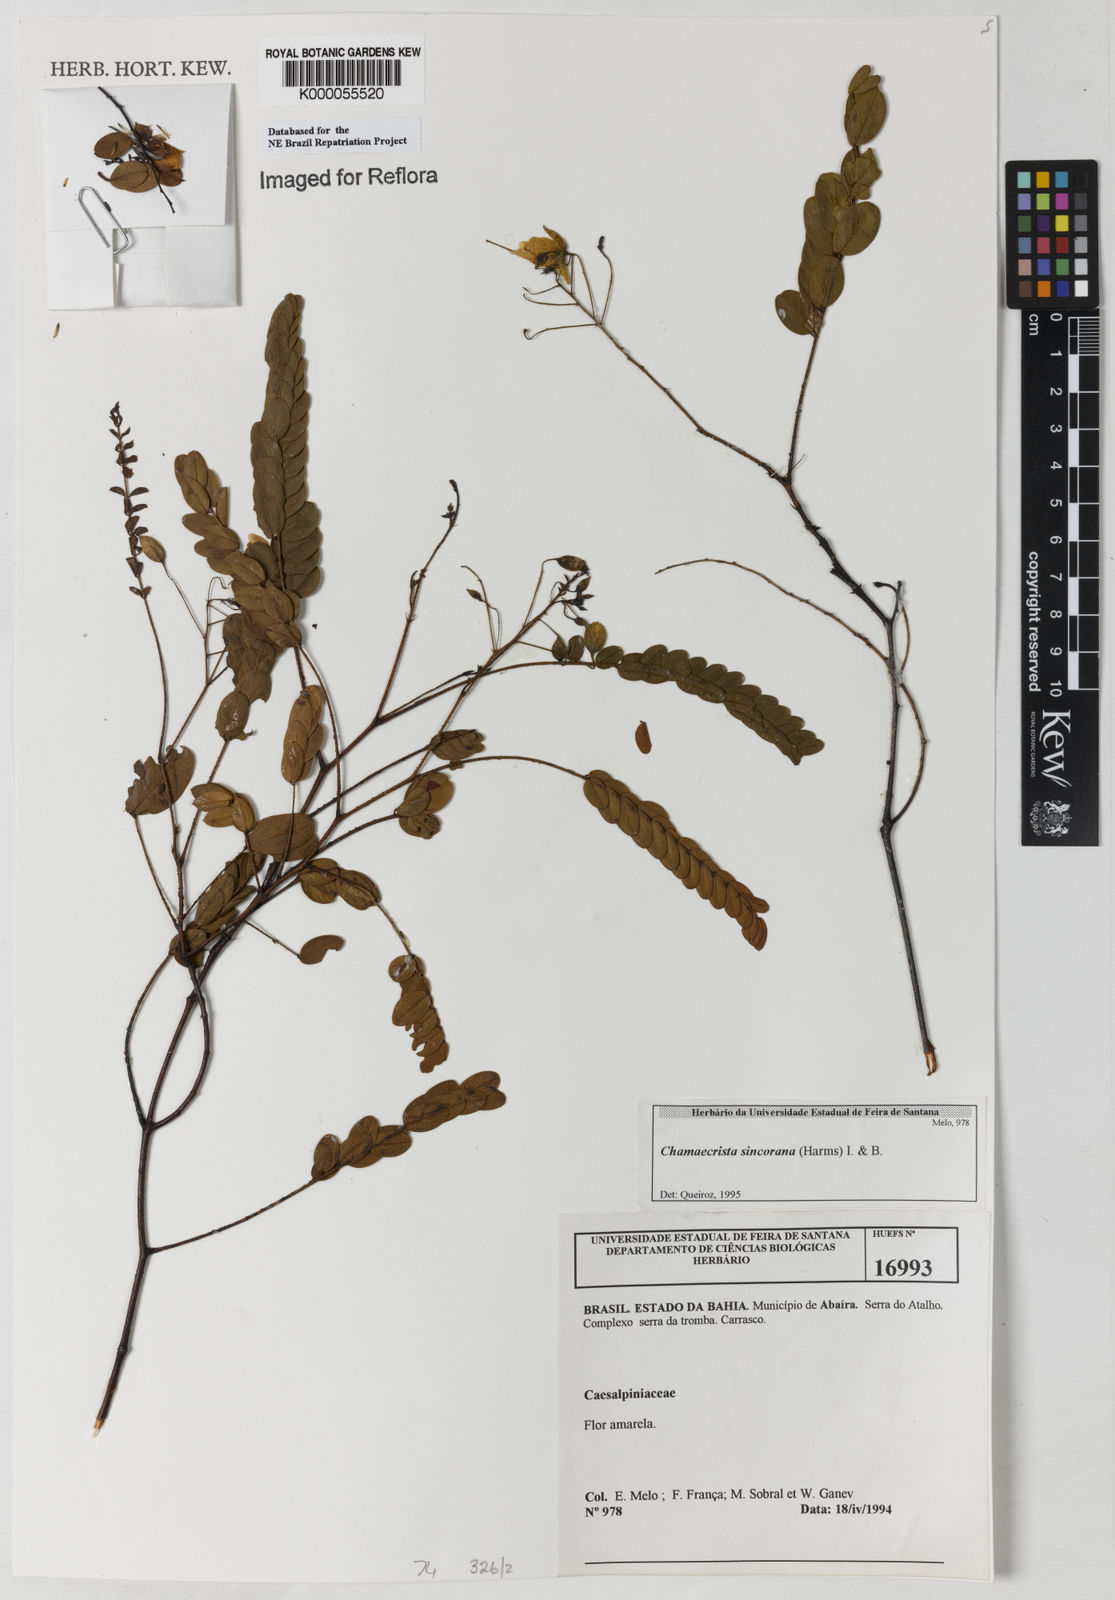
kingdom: Plantae
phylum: Tracheophyta
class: Magnoliopsida
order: Fabales
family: Fabaceae
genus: Chamaecrista
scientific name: Chamaecrista sincorana
